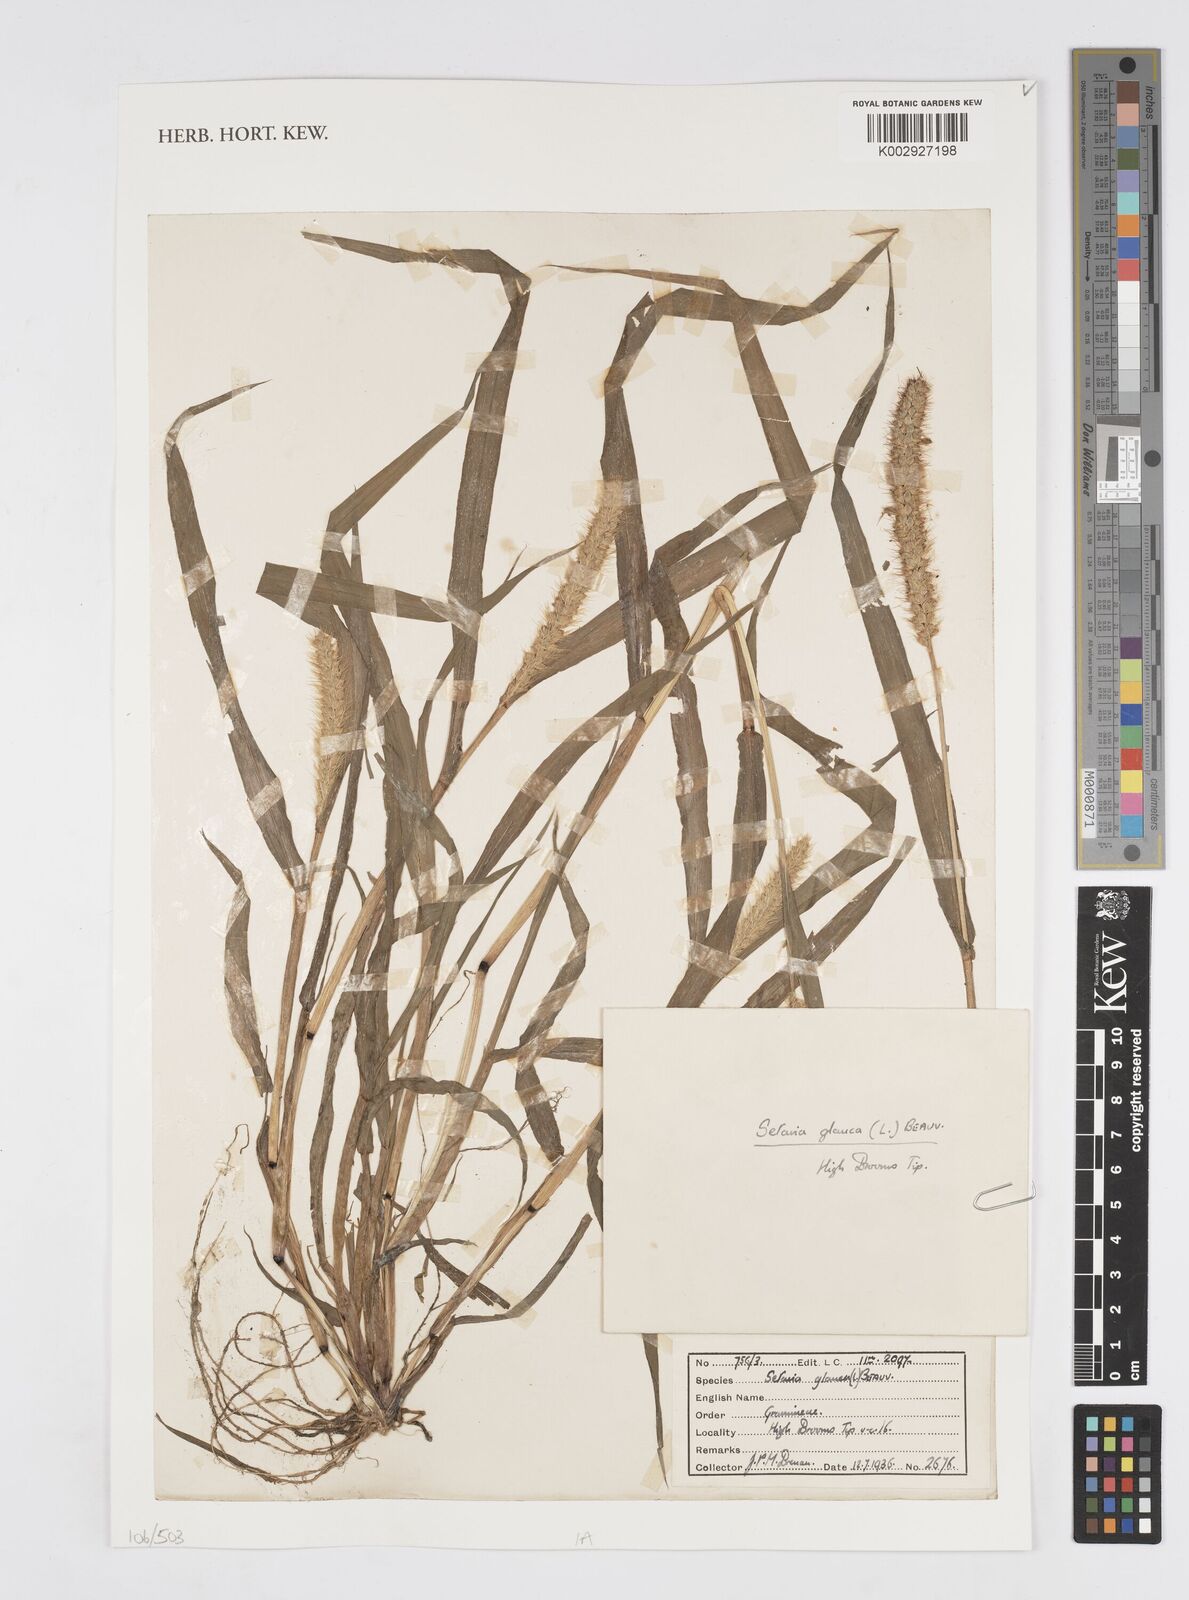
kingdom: Plantae
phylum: Tracheophyta
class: Liliopsida
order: Poales
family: Poaceae
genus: Cenchrus
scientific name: Cenchrus
